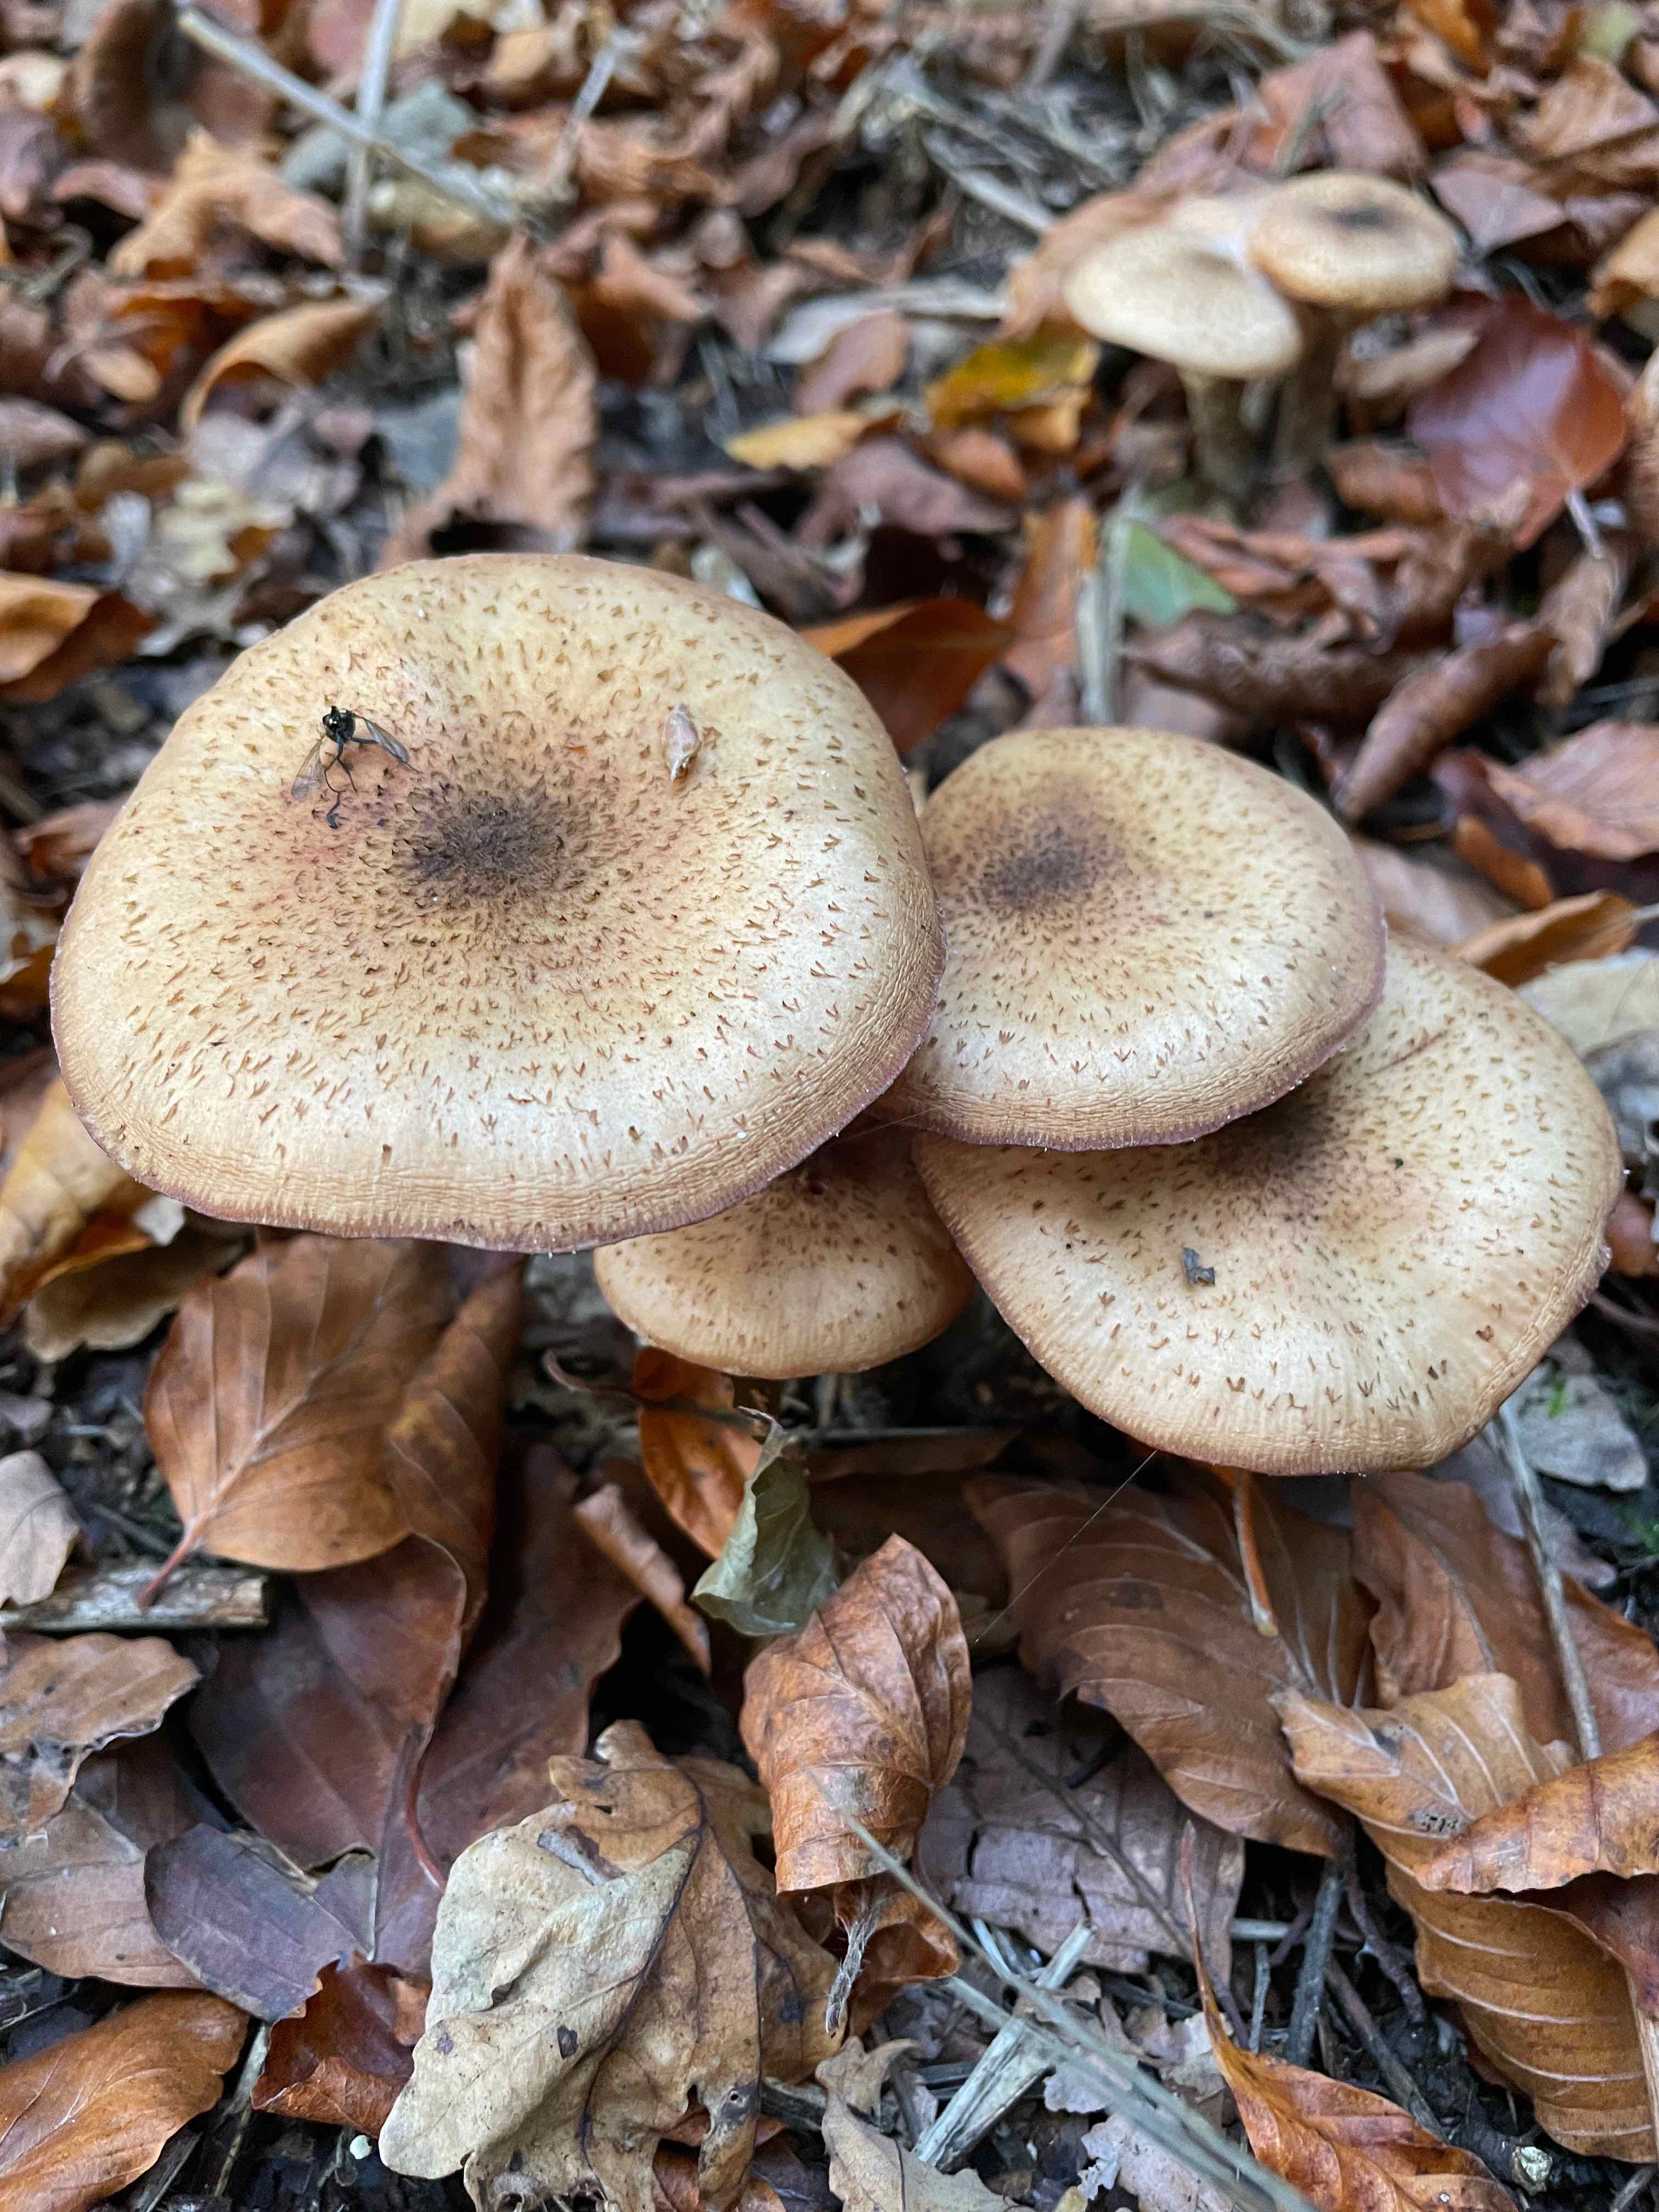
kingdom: Fungi
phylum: Basidiomycota
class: Agaricomycetes
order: Agaricales
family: Physalacriaceae
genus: Armillaria
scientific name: Armillaria lutea
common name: køllestokket honningsvamp
